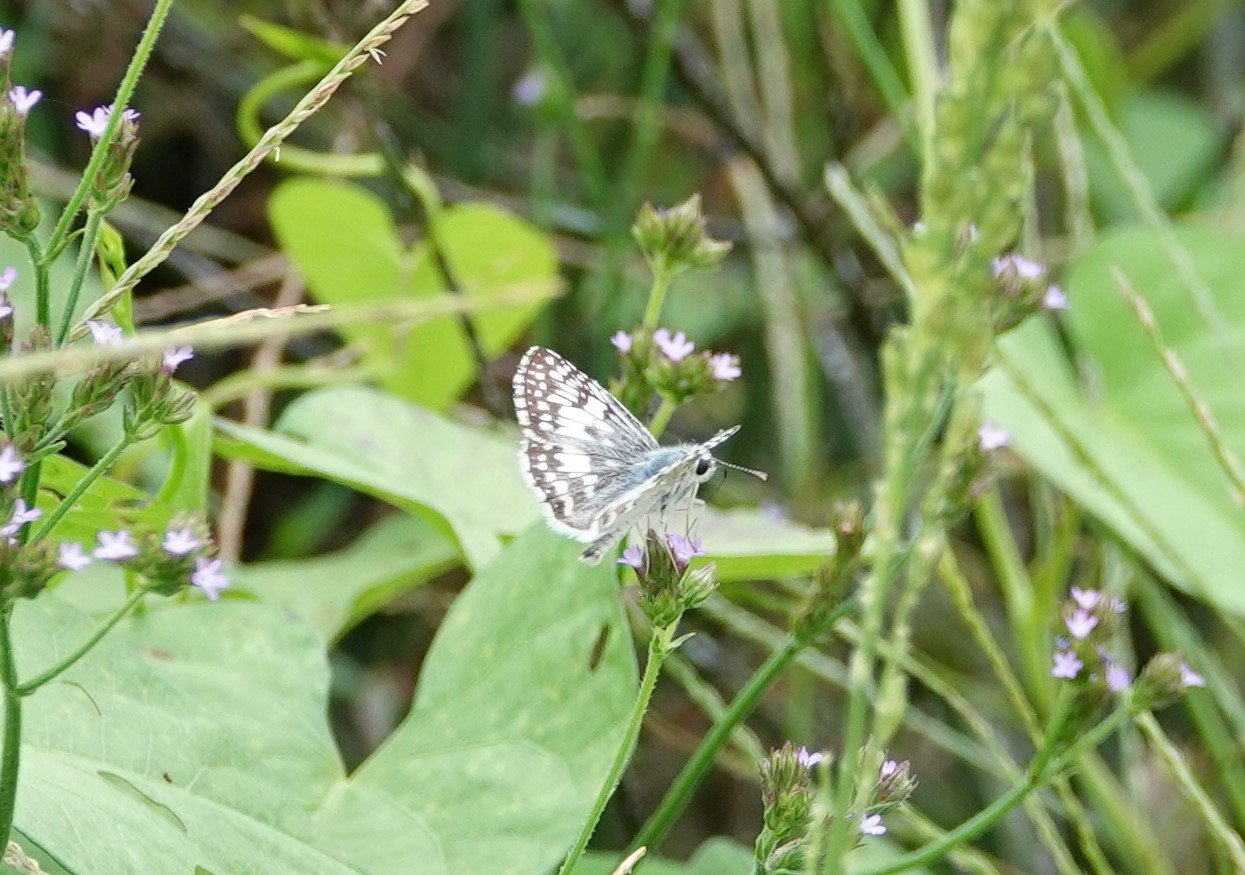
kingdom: Animalia
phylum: Arthropoda
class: Insecta
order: Lepidoptera
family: Hesperiidae
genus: Pyrgus
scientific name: Pyrgus oileus
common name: Tropical Checkered-Skipper
